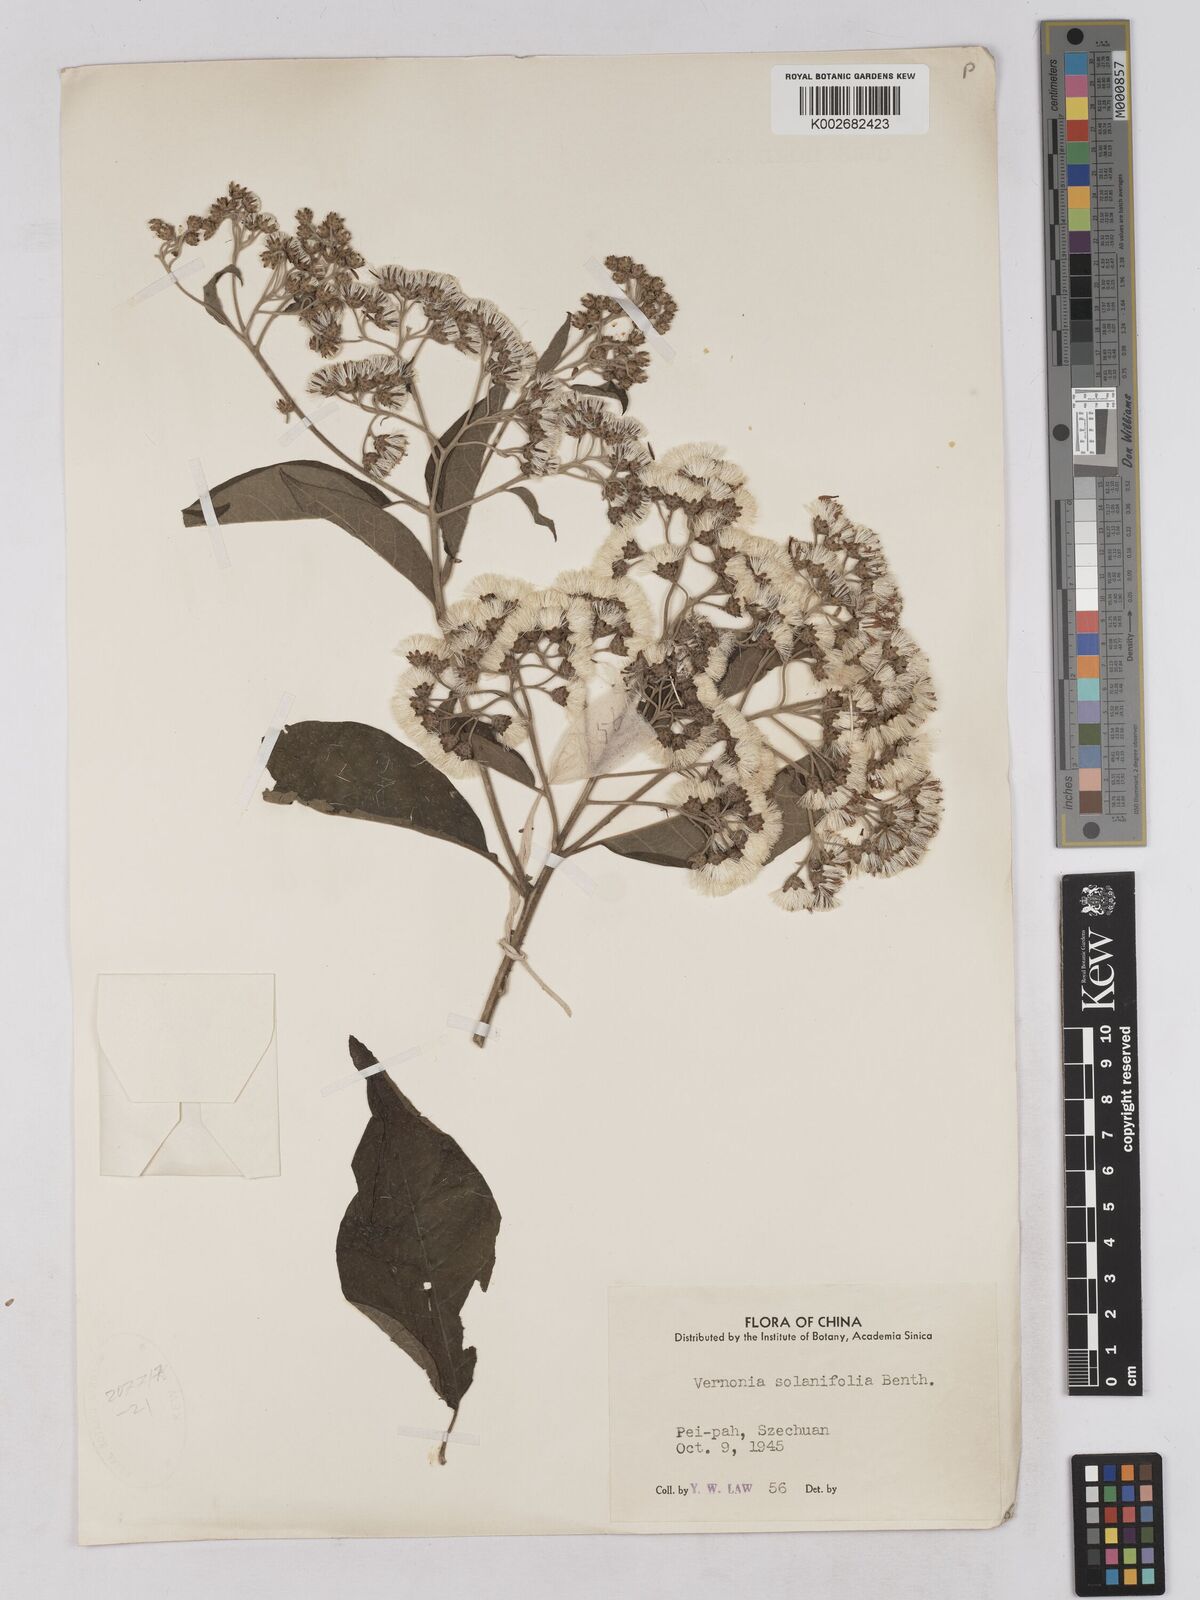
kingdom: Plantae
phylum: Tracheophyta
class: Magnoliopsida
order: Asterales
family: Asteraceae
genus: Strobocalyx
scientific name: Strobocalyx solanifolia
